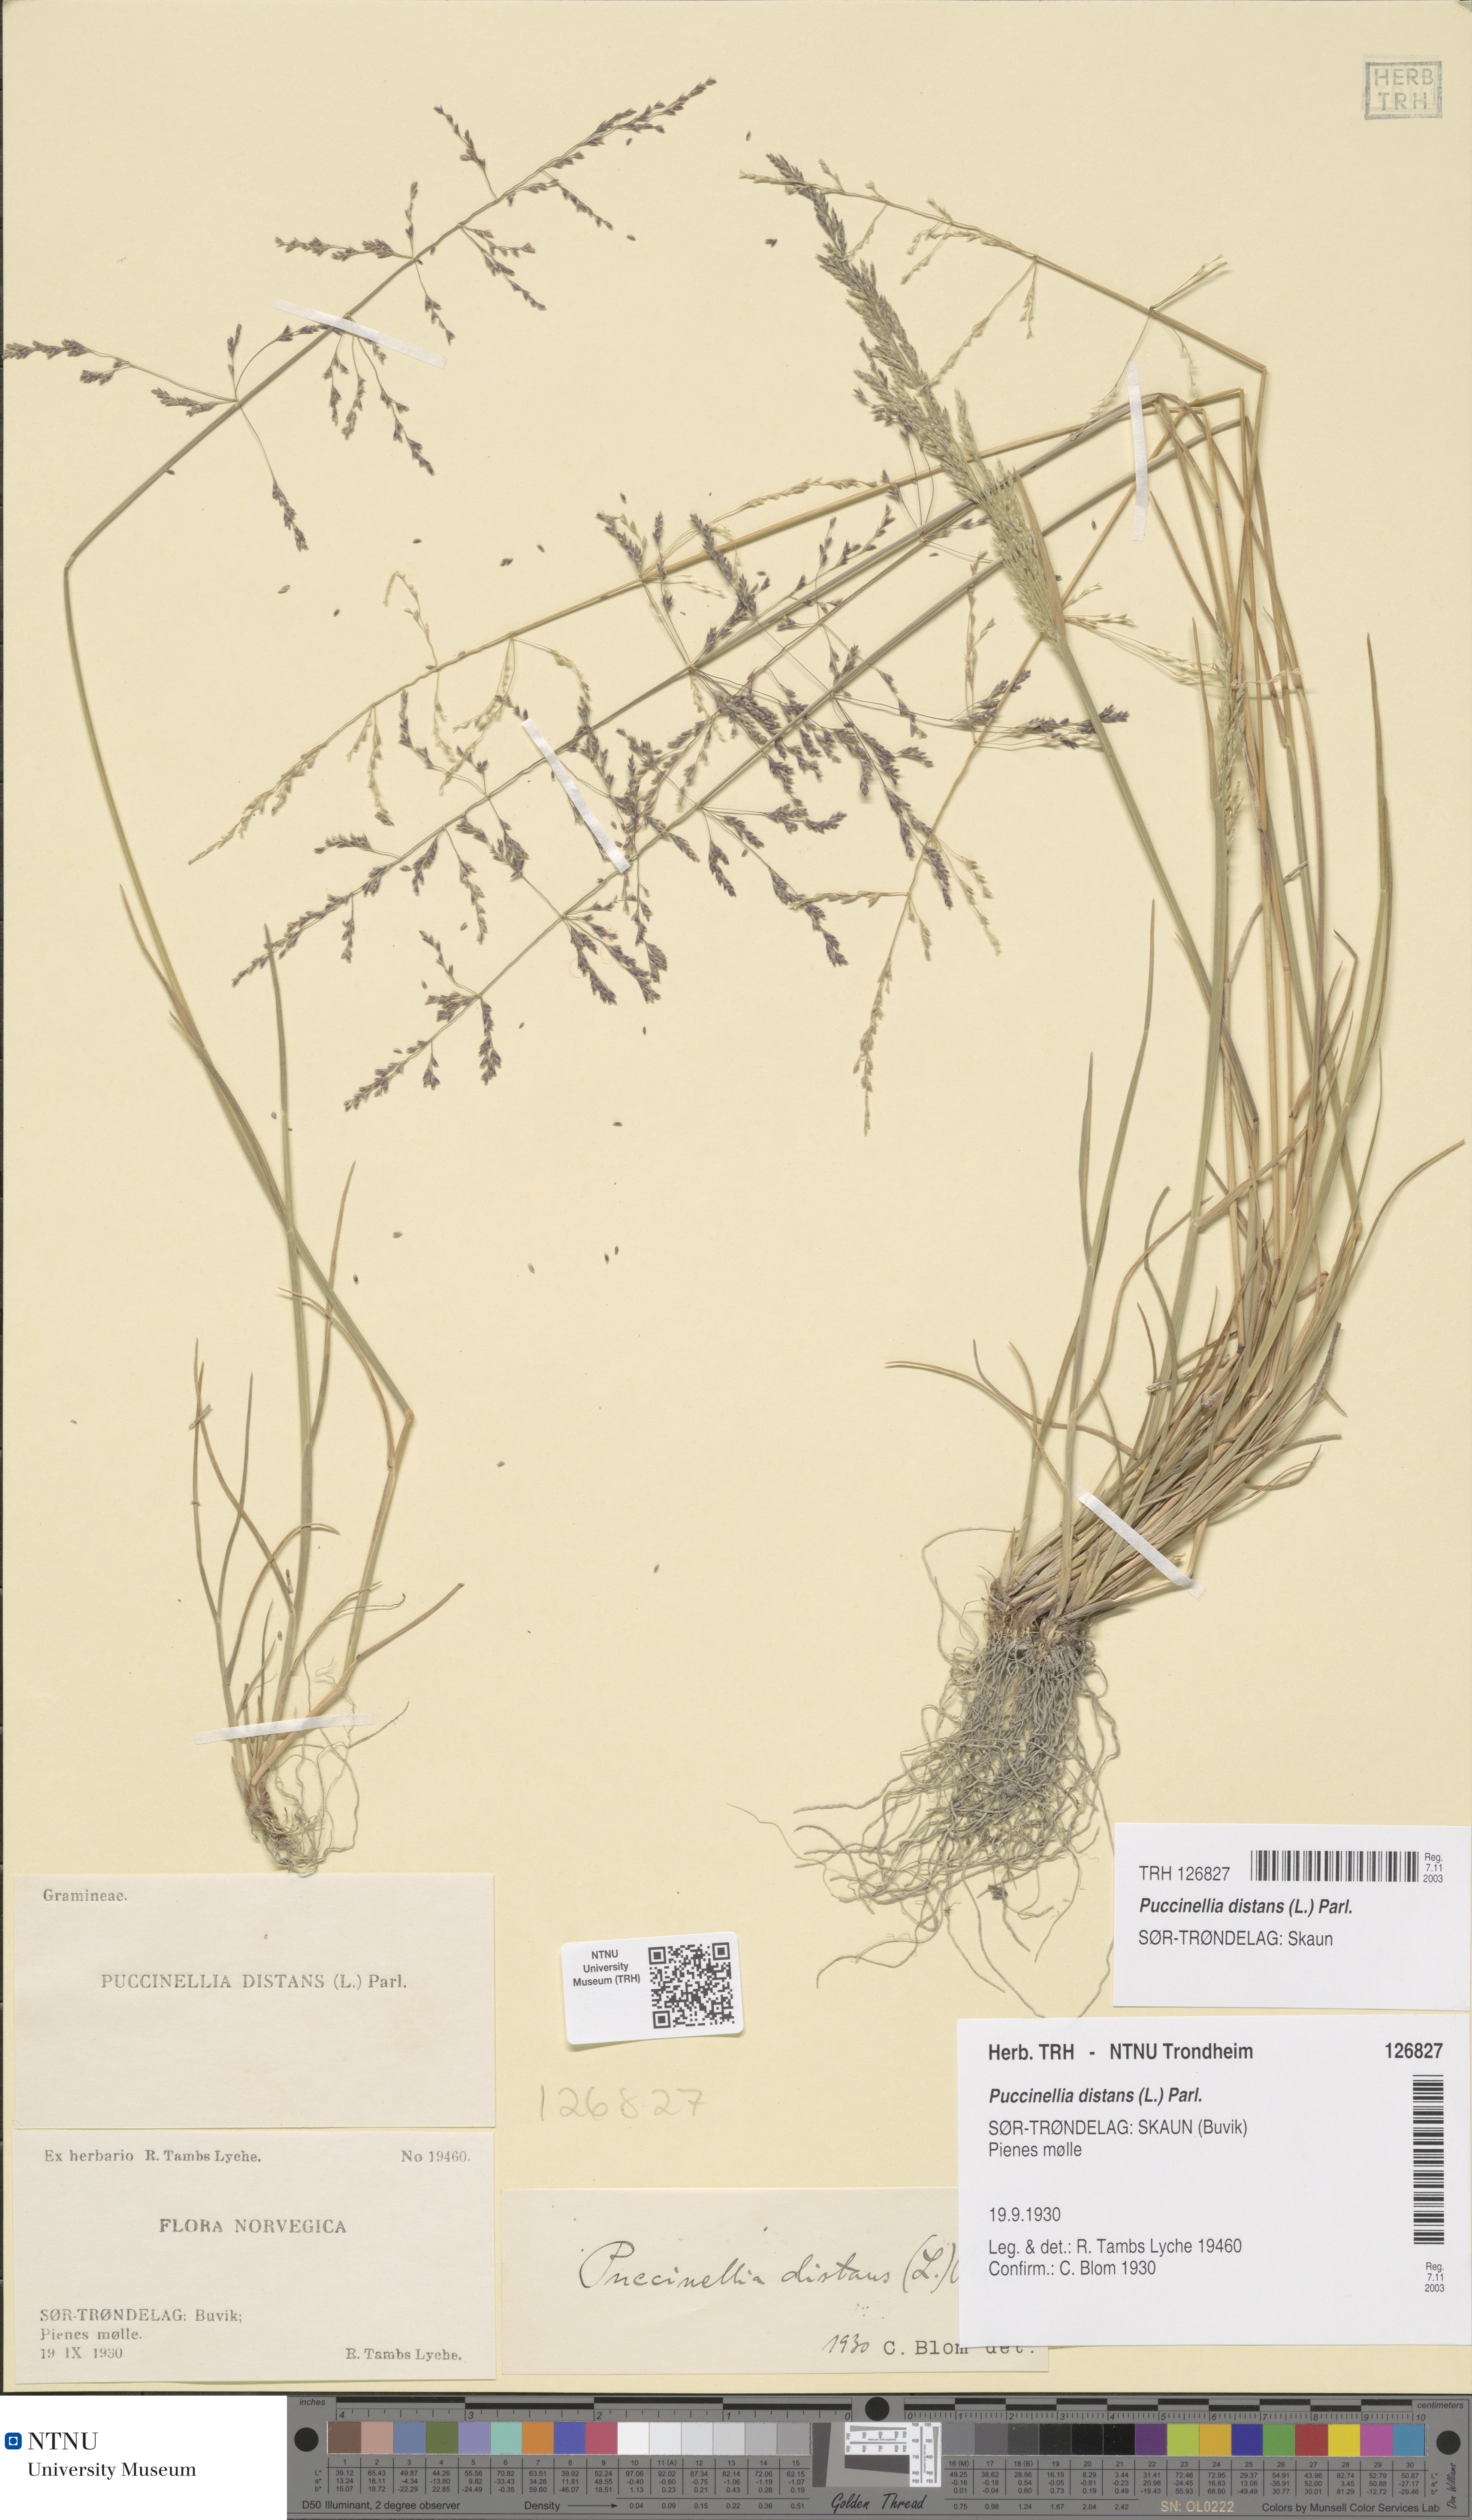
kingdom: Plantae
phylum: Tracheophyta
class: Liliopsida
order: Poales
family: Poaceae
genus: Puccinellia
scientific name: Puccinellia distans
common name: Weeping alkaligrass
